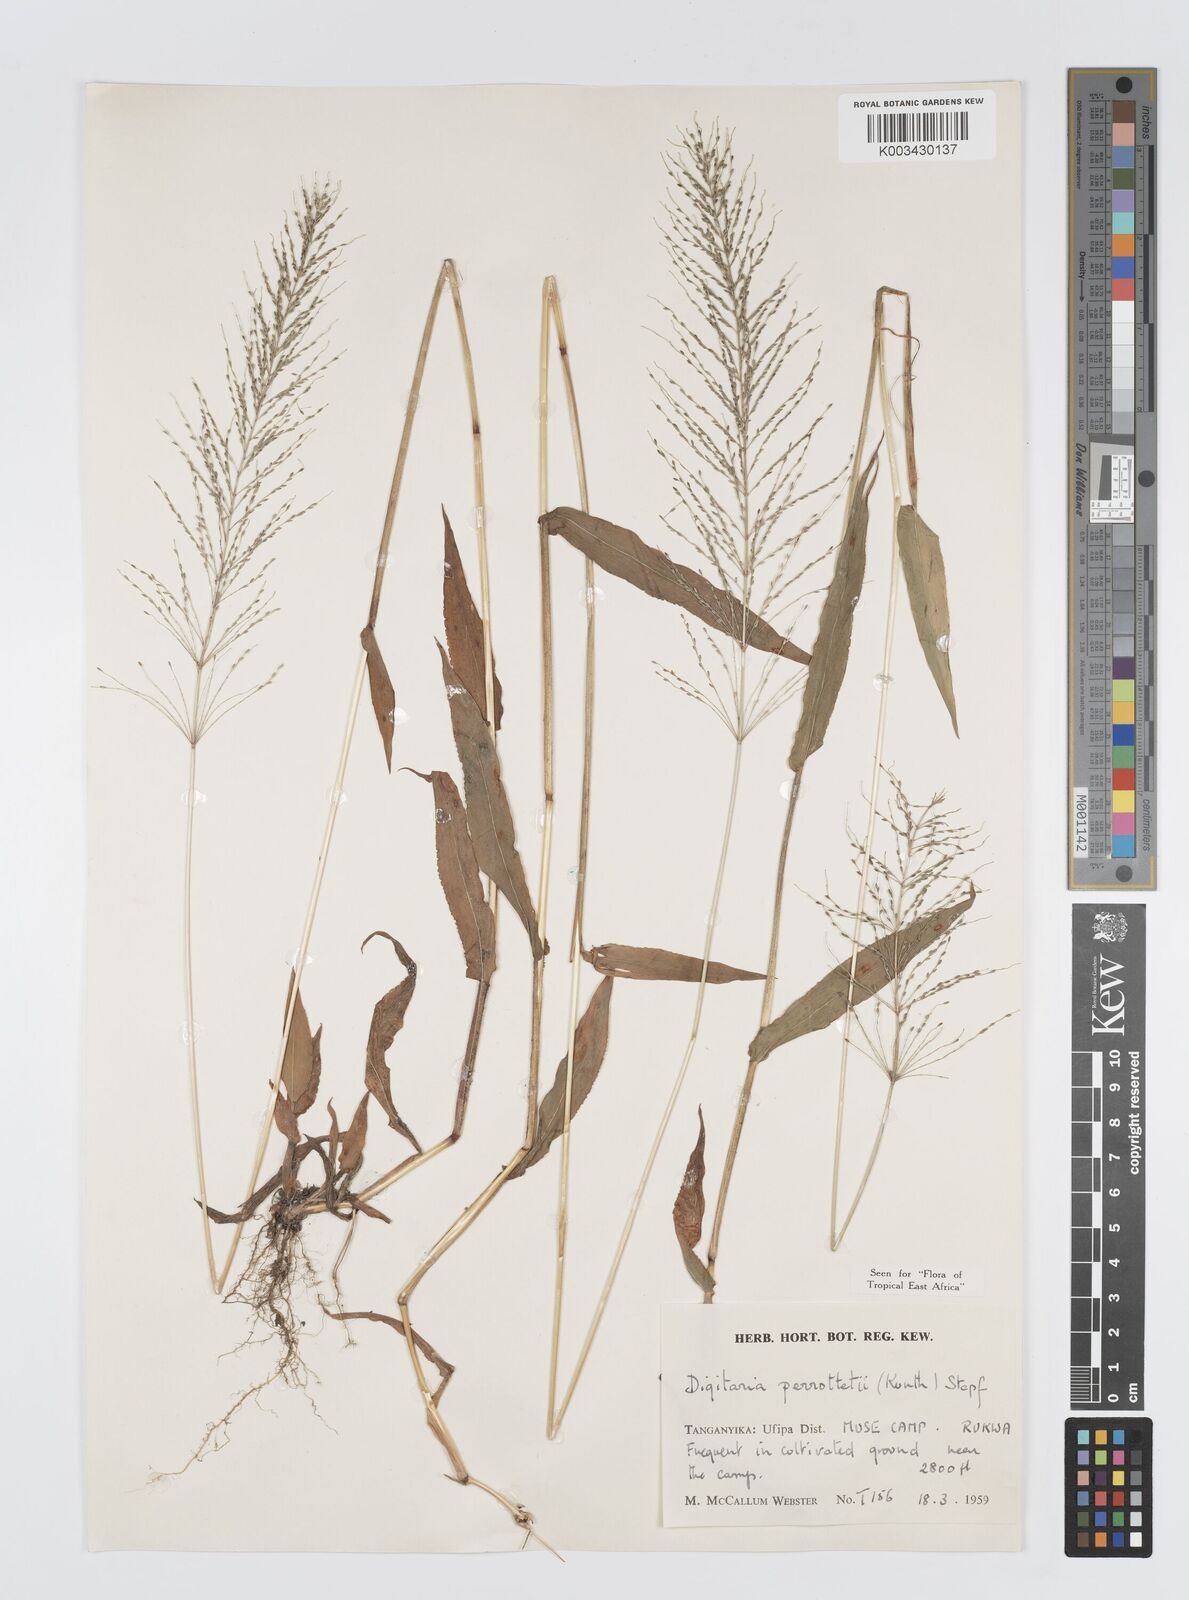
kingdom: Plantae
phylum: Tracheophyta
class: Liliopsida
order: Poales
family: Poaceae
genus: Digitaria
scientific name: Digitaria perrottetii
